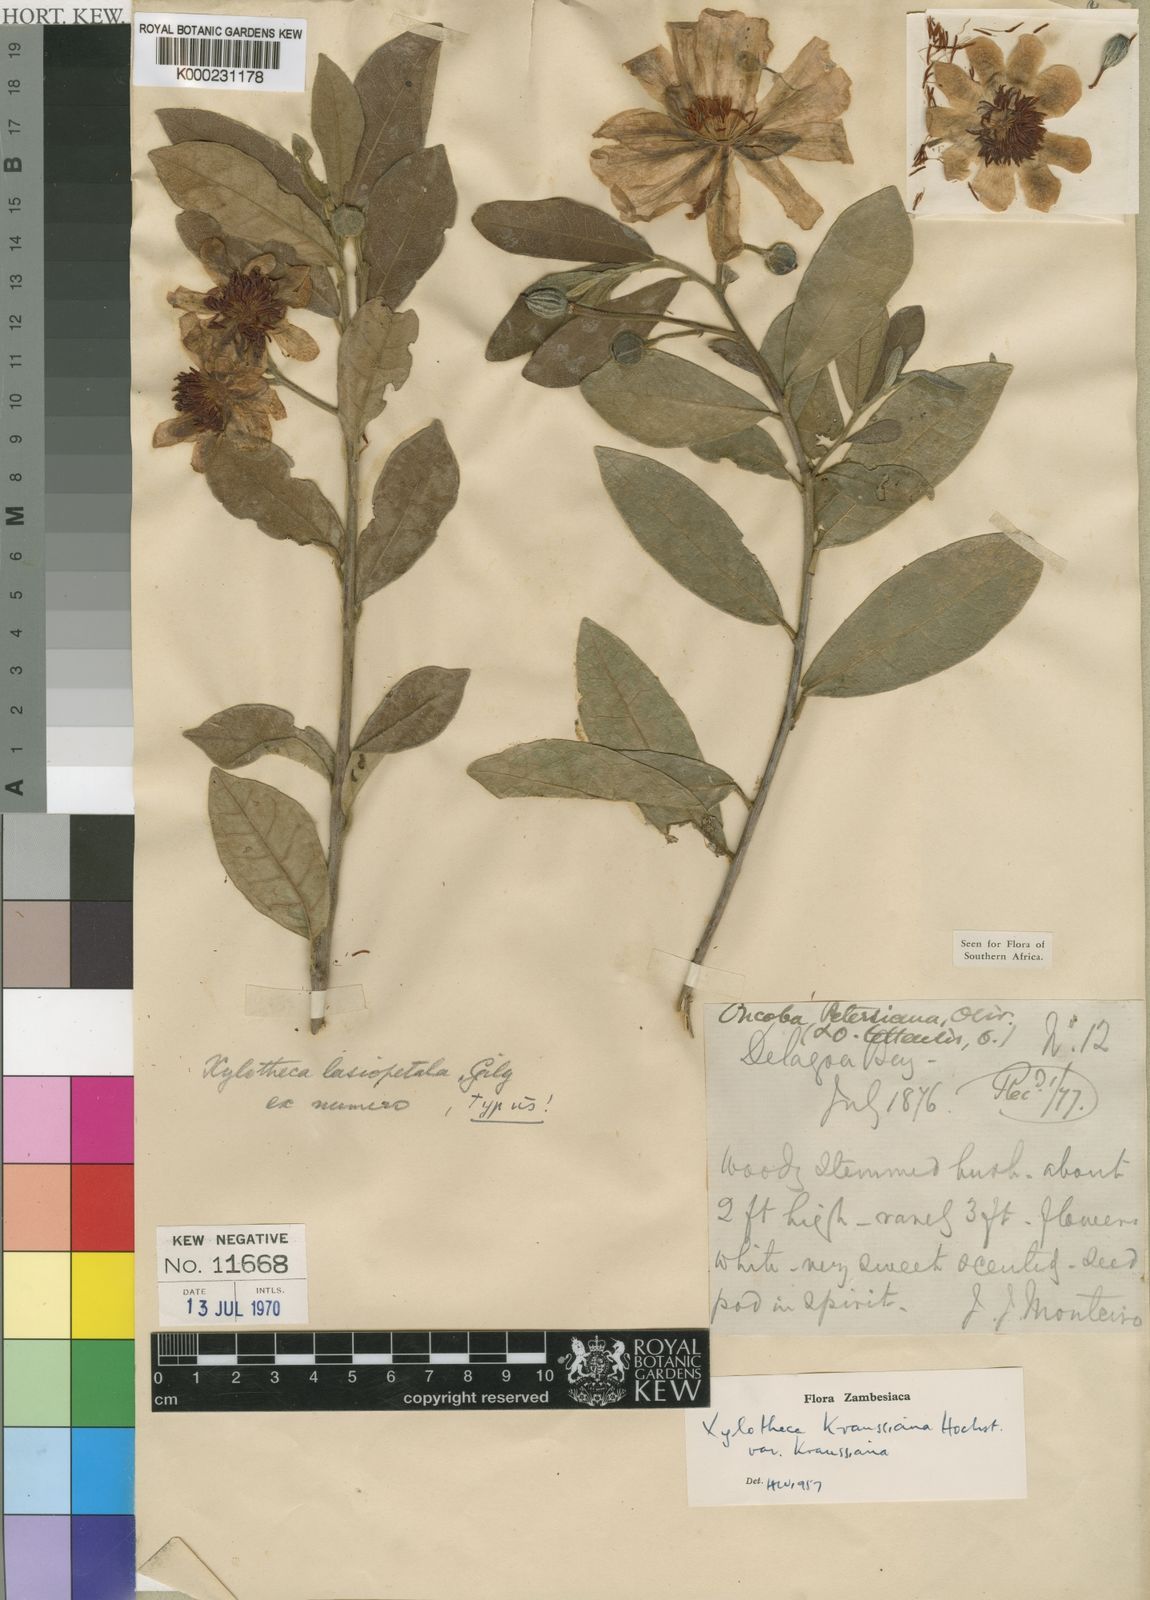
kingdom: Plantae
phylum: Tracheophyta
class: Magnoliopsida
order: Malpighiales
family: Achariaceae
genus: Xylotheca
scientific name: Xylotheca kraussiana
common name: African dog rose
